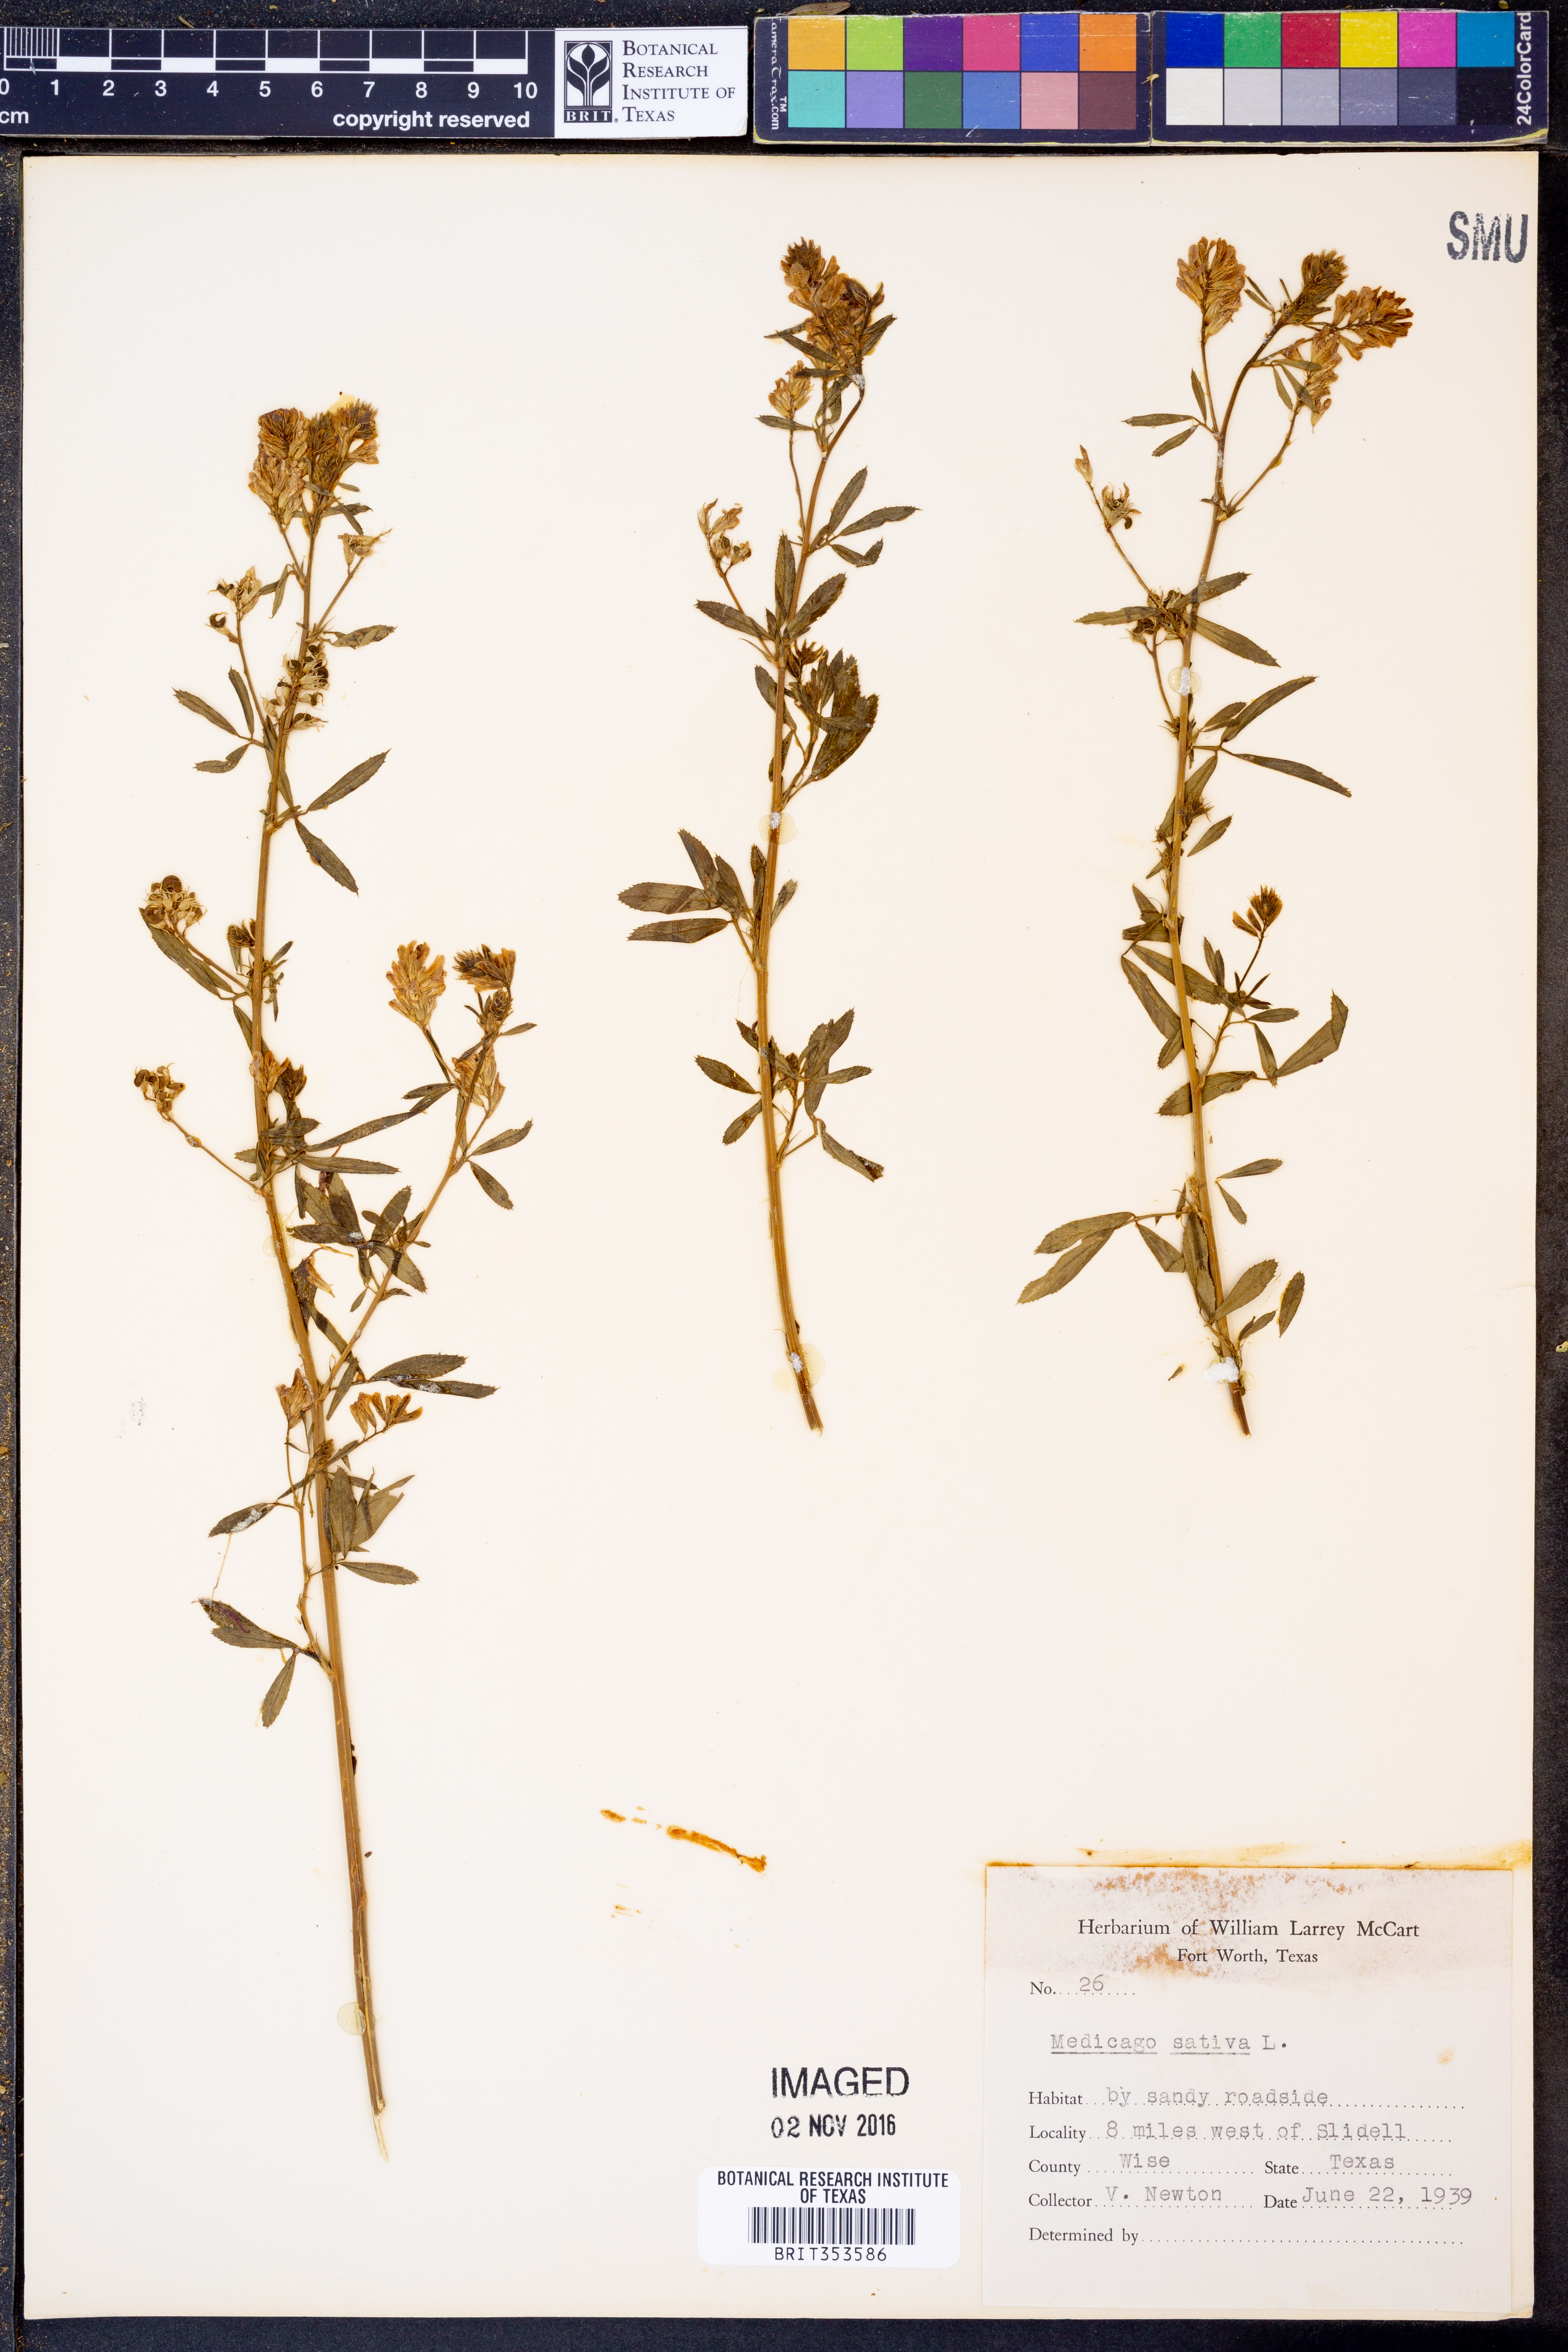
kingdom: Plantae
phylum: Tracheophyta
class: Magnoliopsida
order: Fabales
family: Fabaceae
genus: Medicago
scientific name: Medicago sativa
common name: Alfalfa
